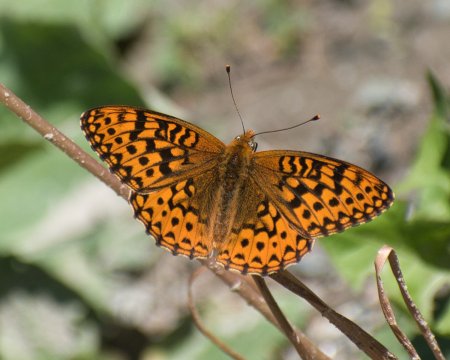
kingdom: Animalia
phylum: Arthropoda
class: Insecta
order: Lepidoptera
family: Nymphalidae
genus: Speyeria
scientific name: Speyeria hydaspe
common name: Hydaspe Fritillary
